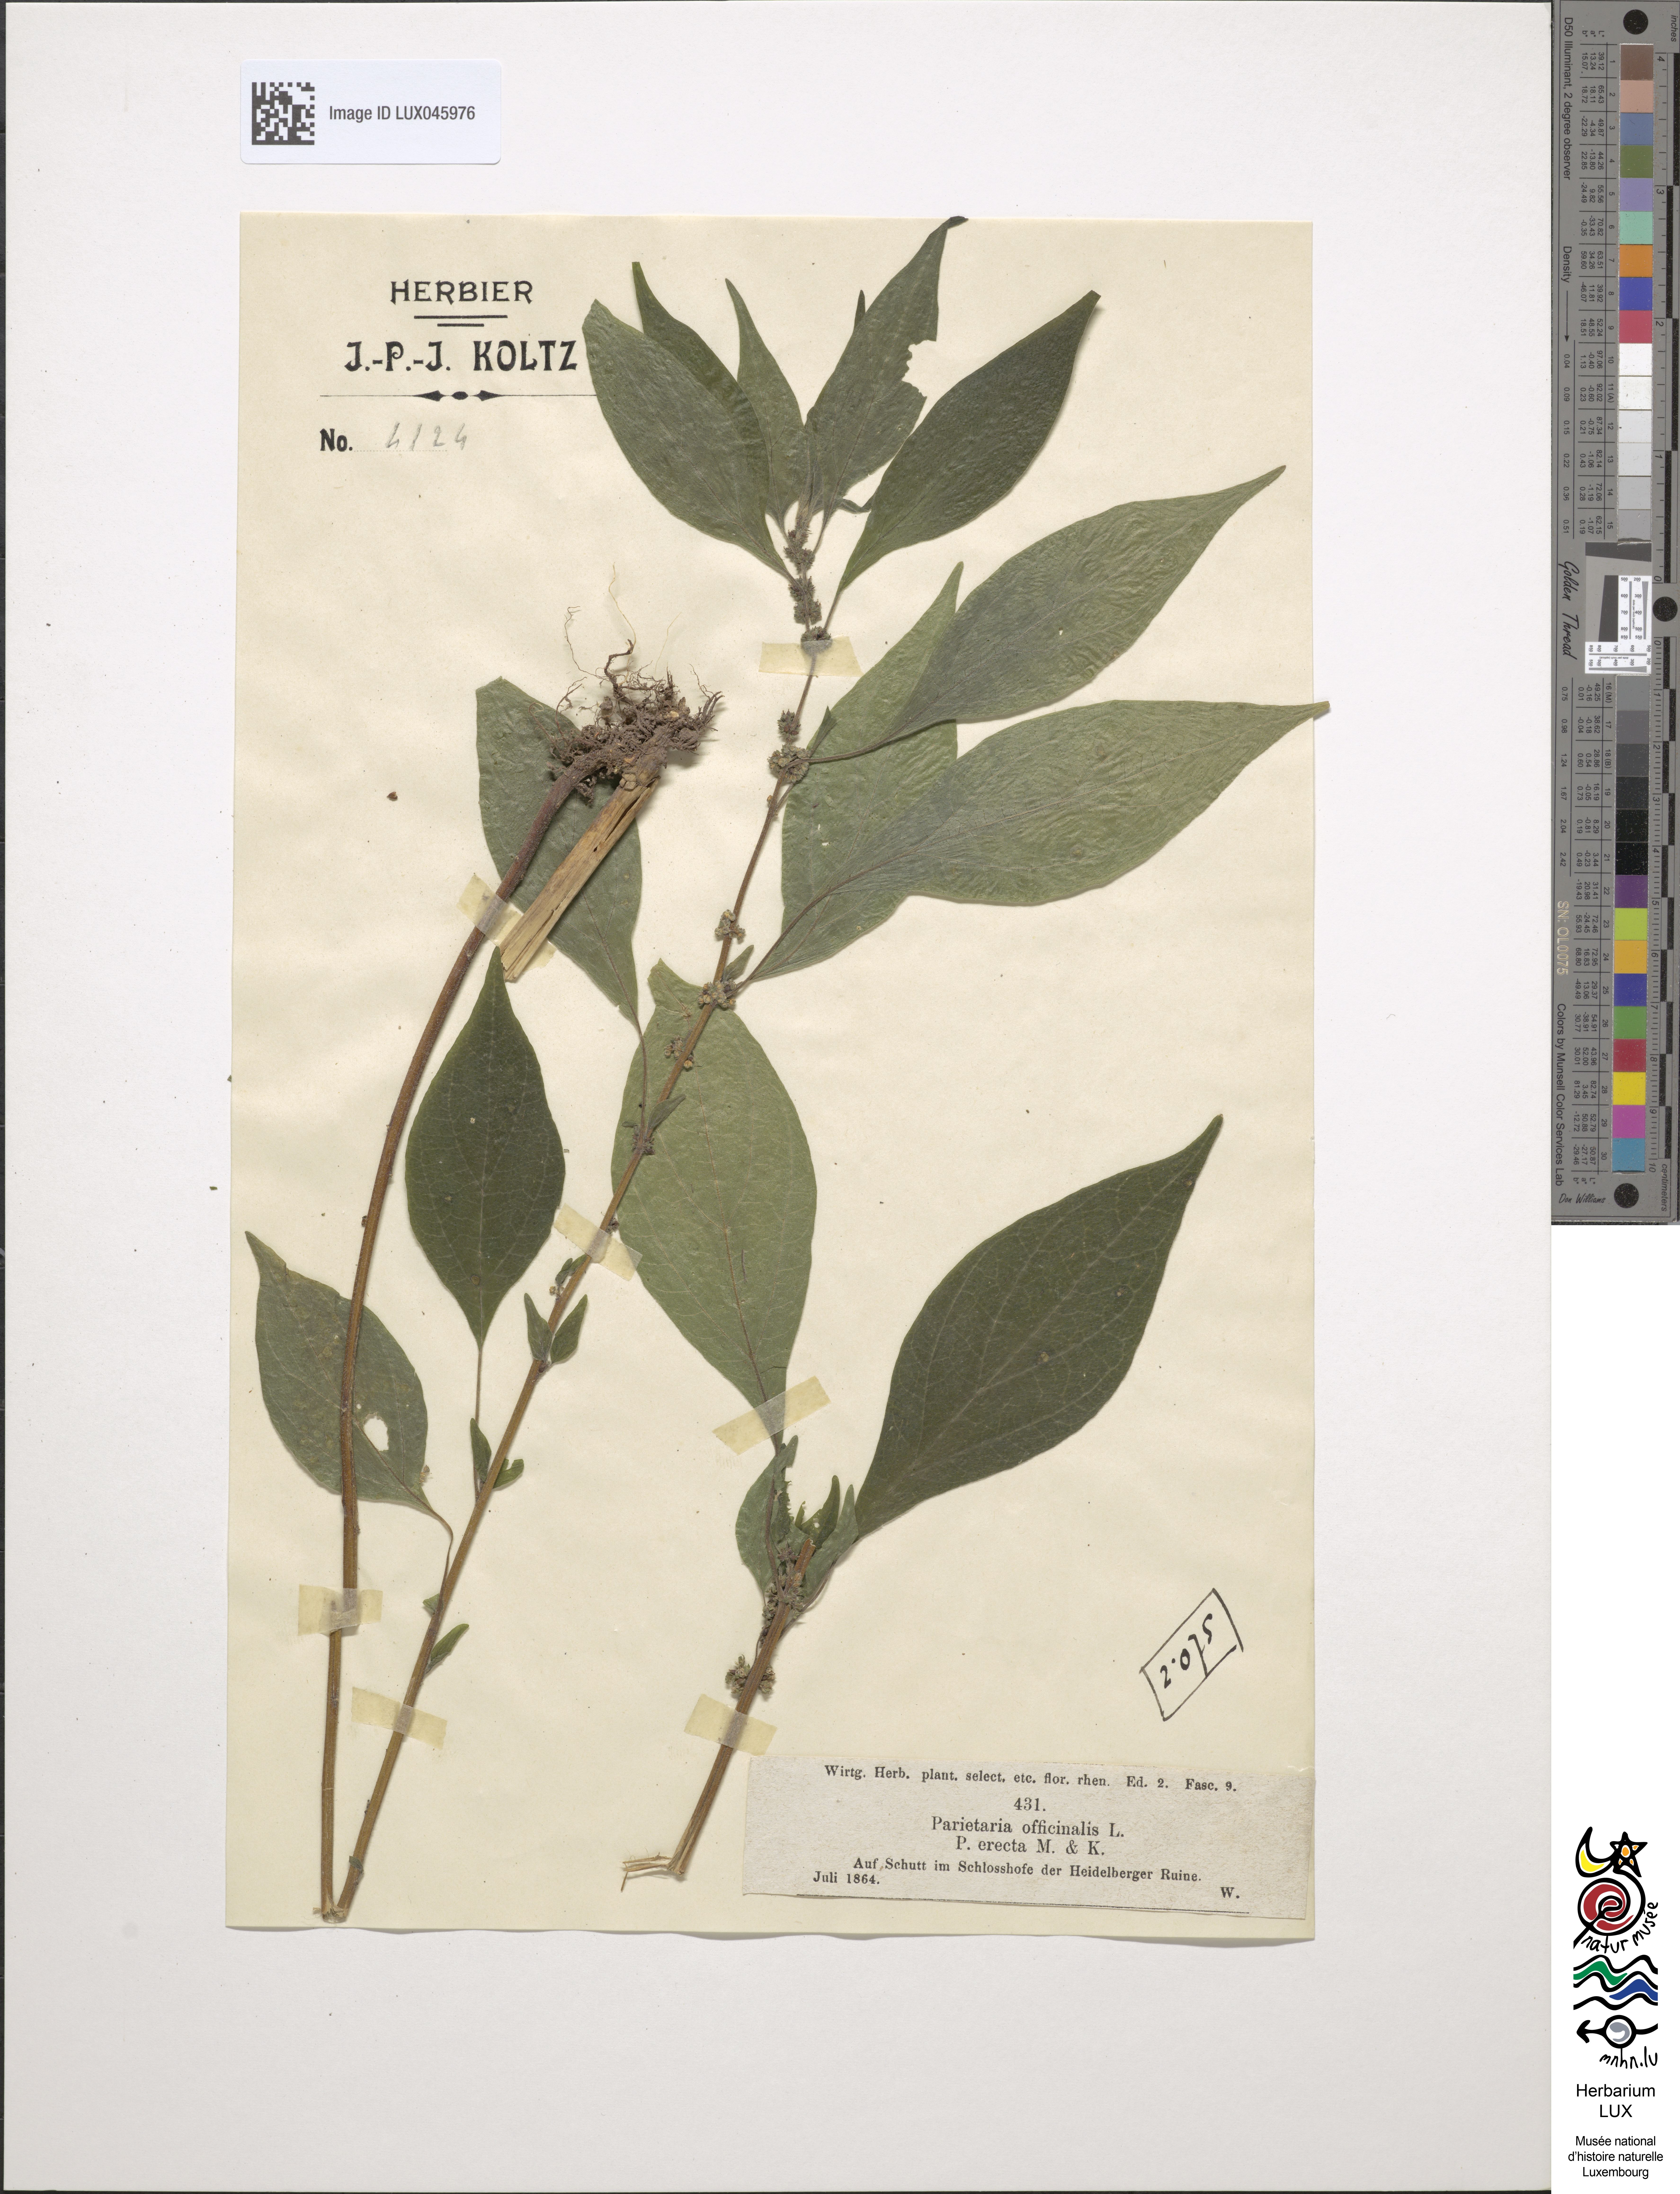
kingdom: Plantae
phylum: Tracheophyta
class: Magnoliopsida
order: Rosales
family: Urticaceae
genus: Parietaria
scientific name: Parietaria officinalis
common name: Eastern pellitory-of-the-wall
